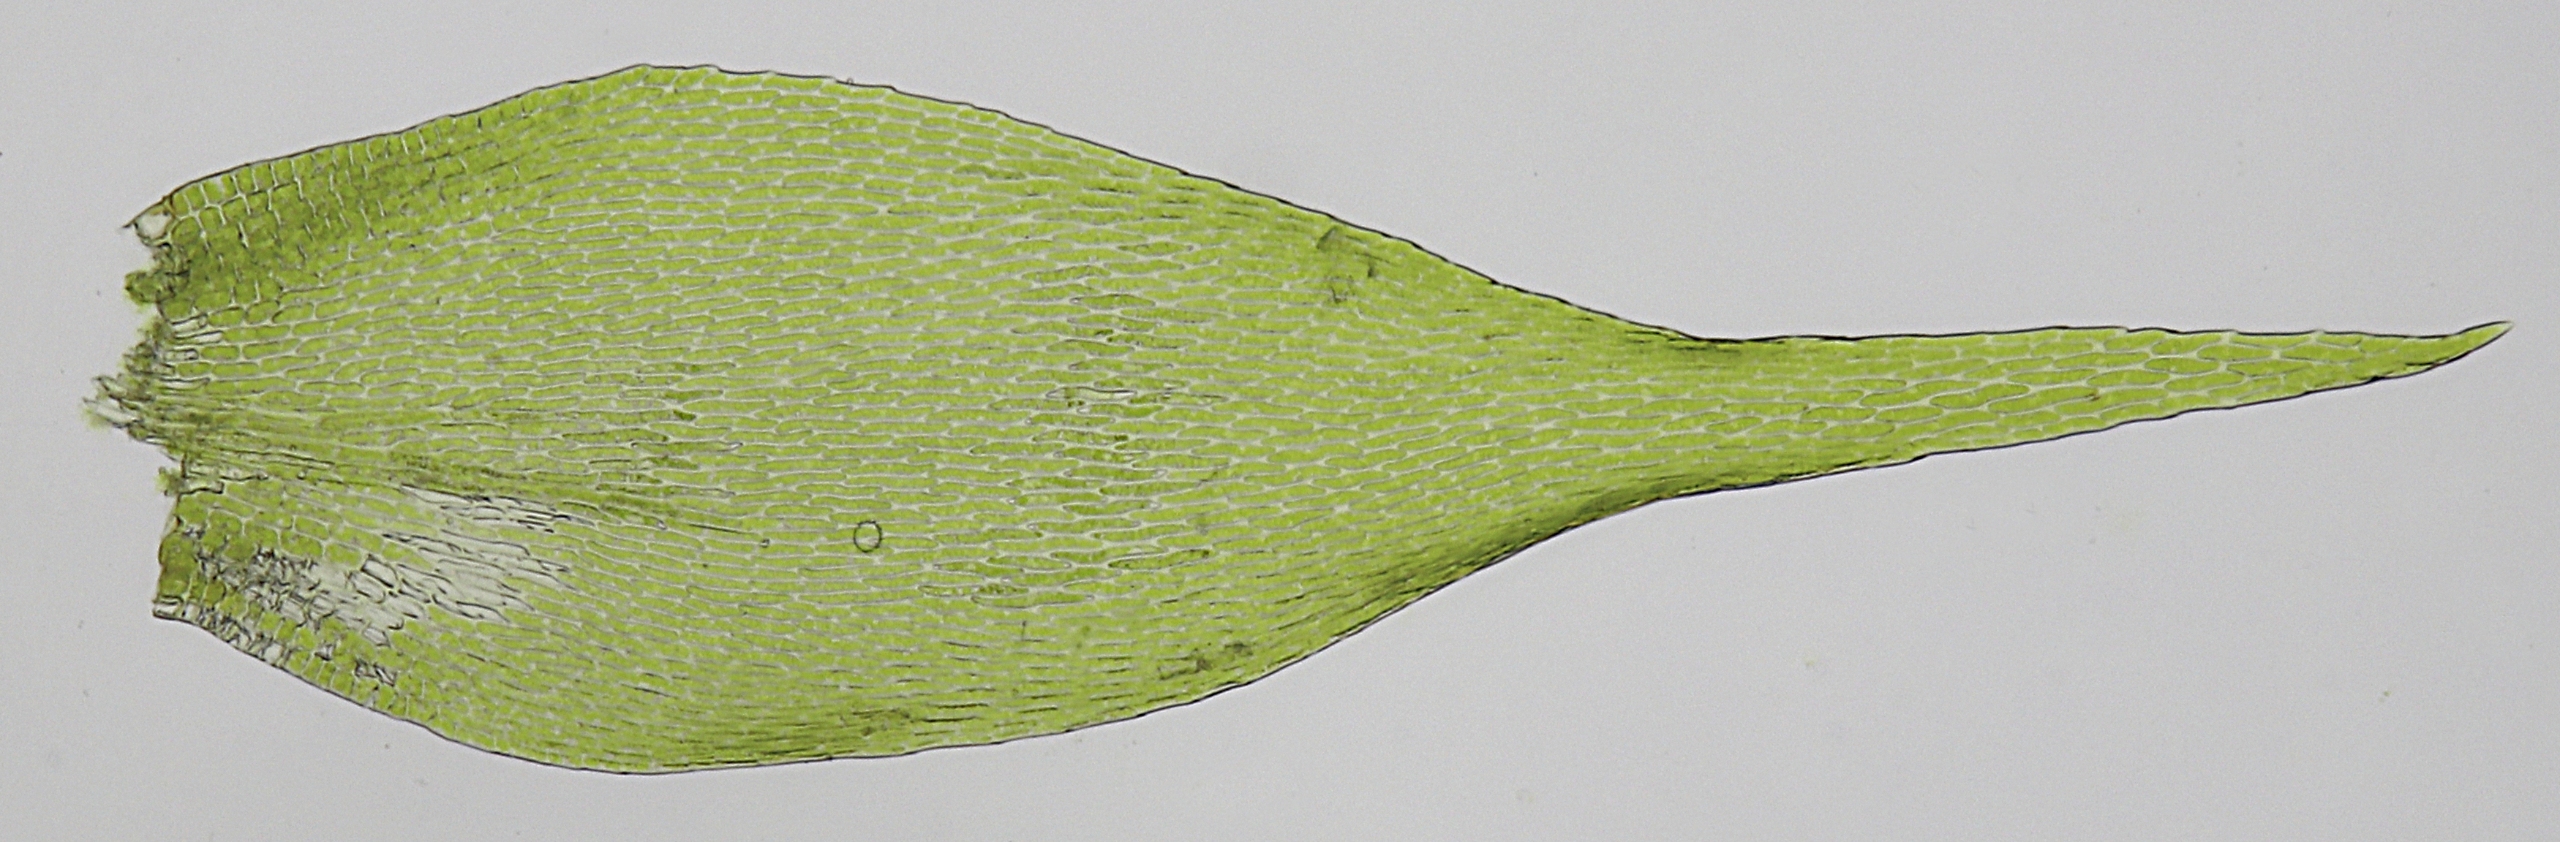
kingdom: Plantae
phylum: Bryophyta
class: Bryopsida
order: Hypnales
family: Pylaisiaceae
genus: Homomallium
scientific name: Homomallium incurvatum
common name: Krum skyggemos
